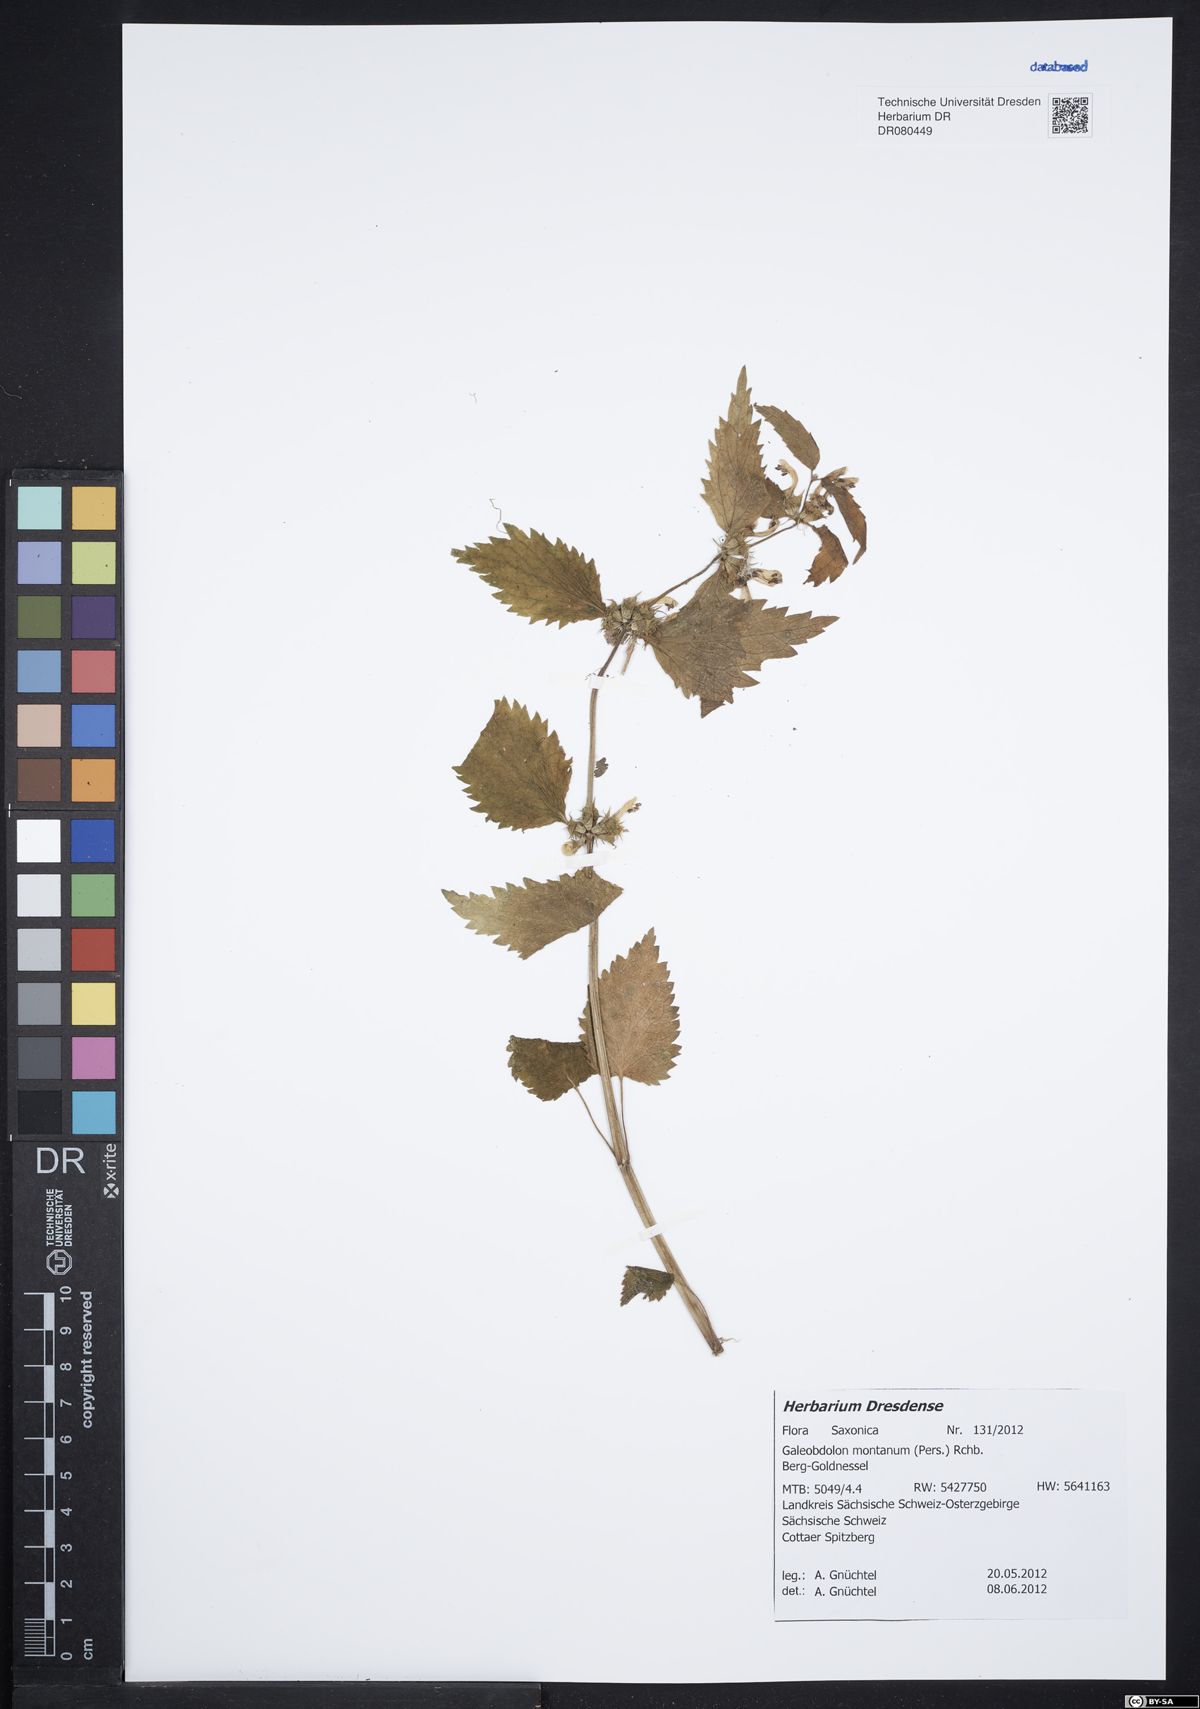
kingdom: Plantae
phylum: Tracheophyta
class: Magnoliopsida
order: Lamiales
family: Lamiaceae
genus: Lamium
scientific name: Lamium galeobdolon
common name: Yellow archangel
